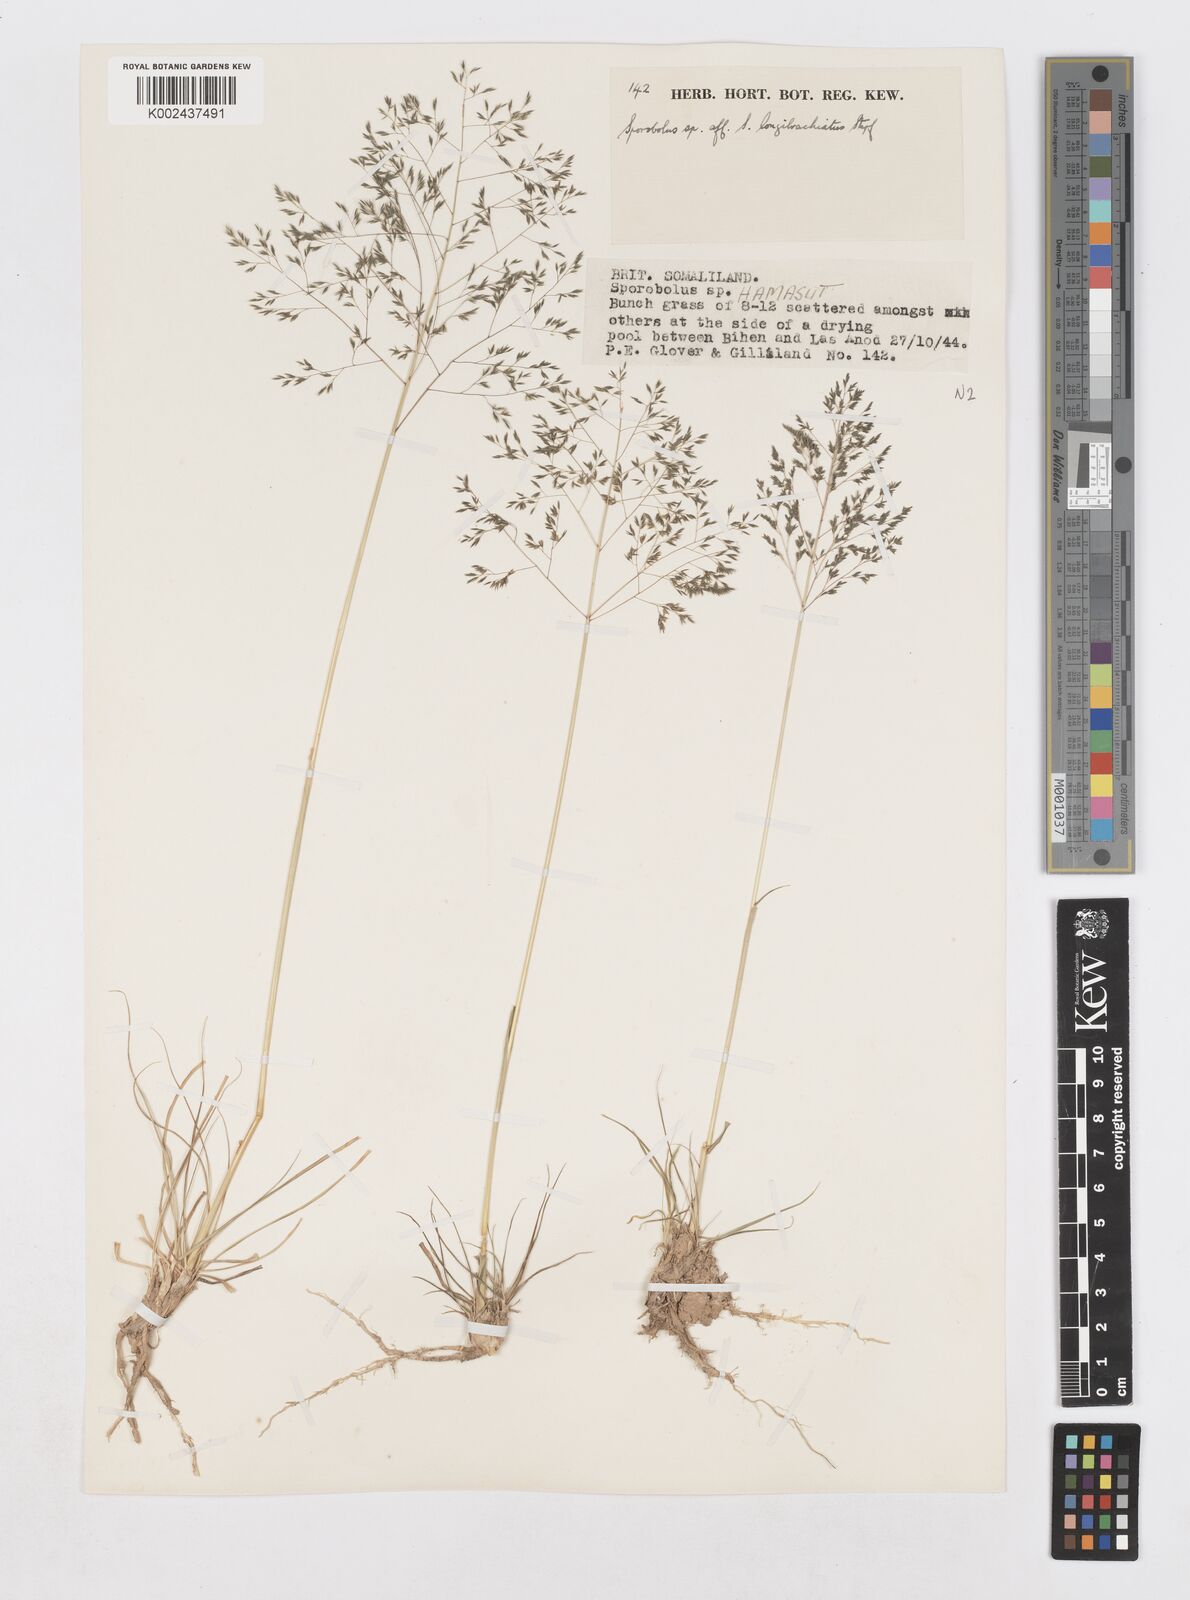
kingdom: Plantae
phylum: Tracheophyta
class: Liliopsida
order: Poales
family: Poaceae
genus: Sporobolus
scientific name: Sporobolus nervosus
